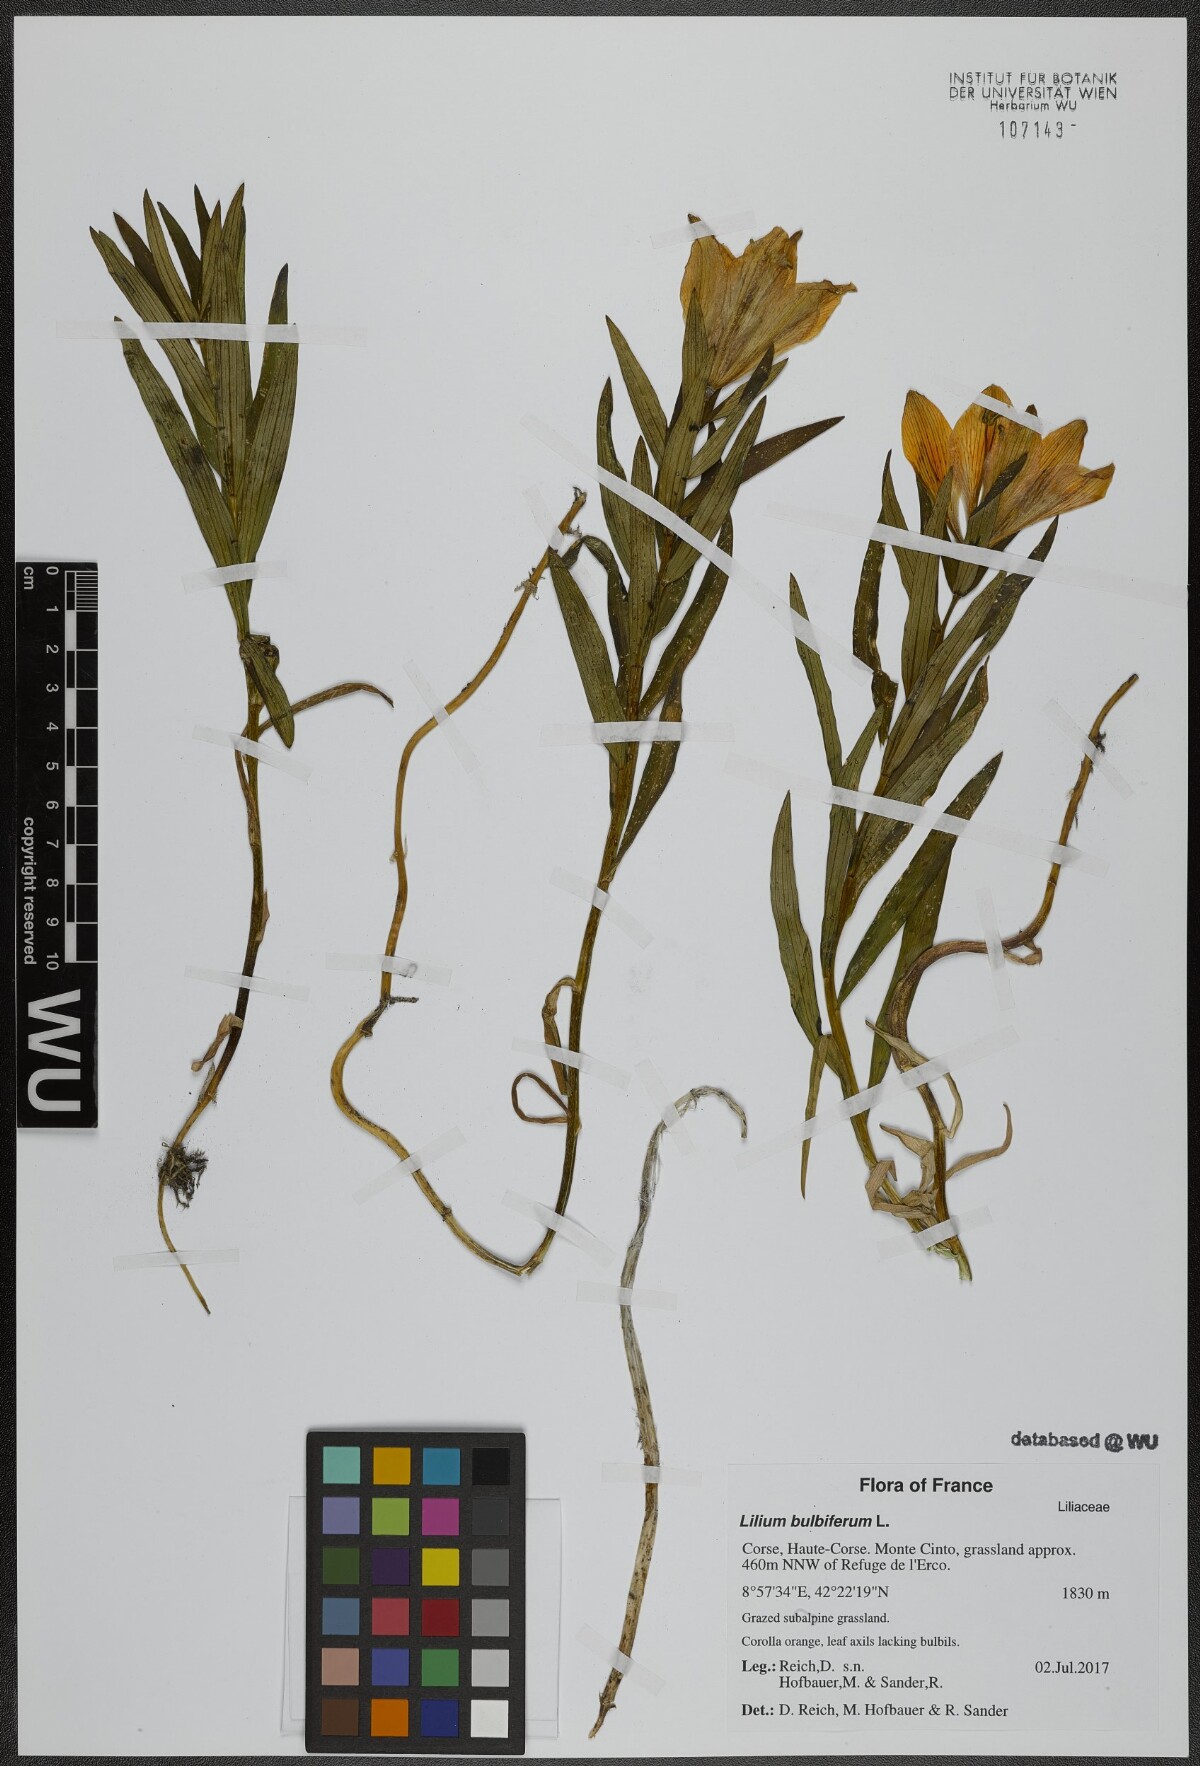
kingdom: Plantae
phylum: Tracheophyta
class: Liliopsida
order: Liliales
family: Liliaceae
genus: Lilium
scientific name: Lilium bulbiferum
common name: Orange lily
